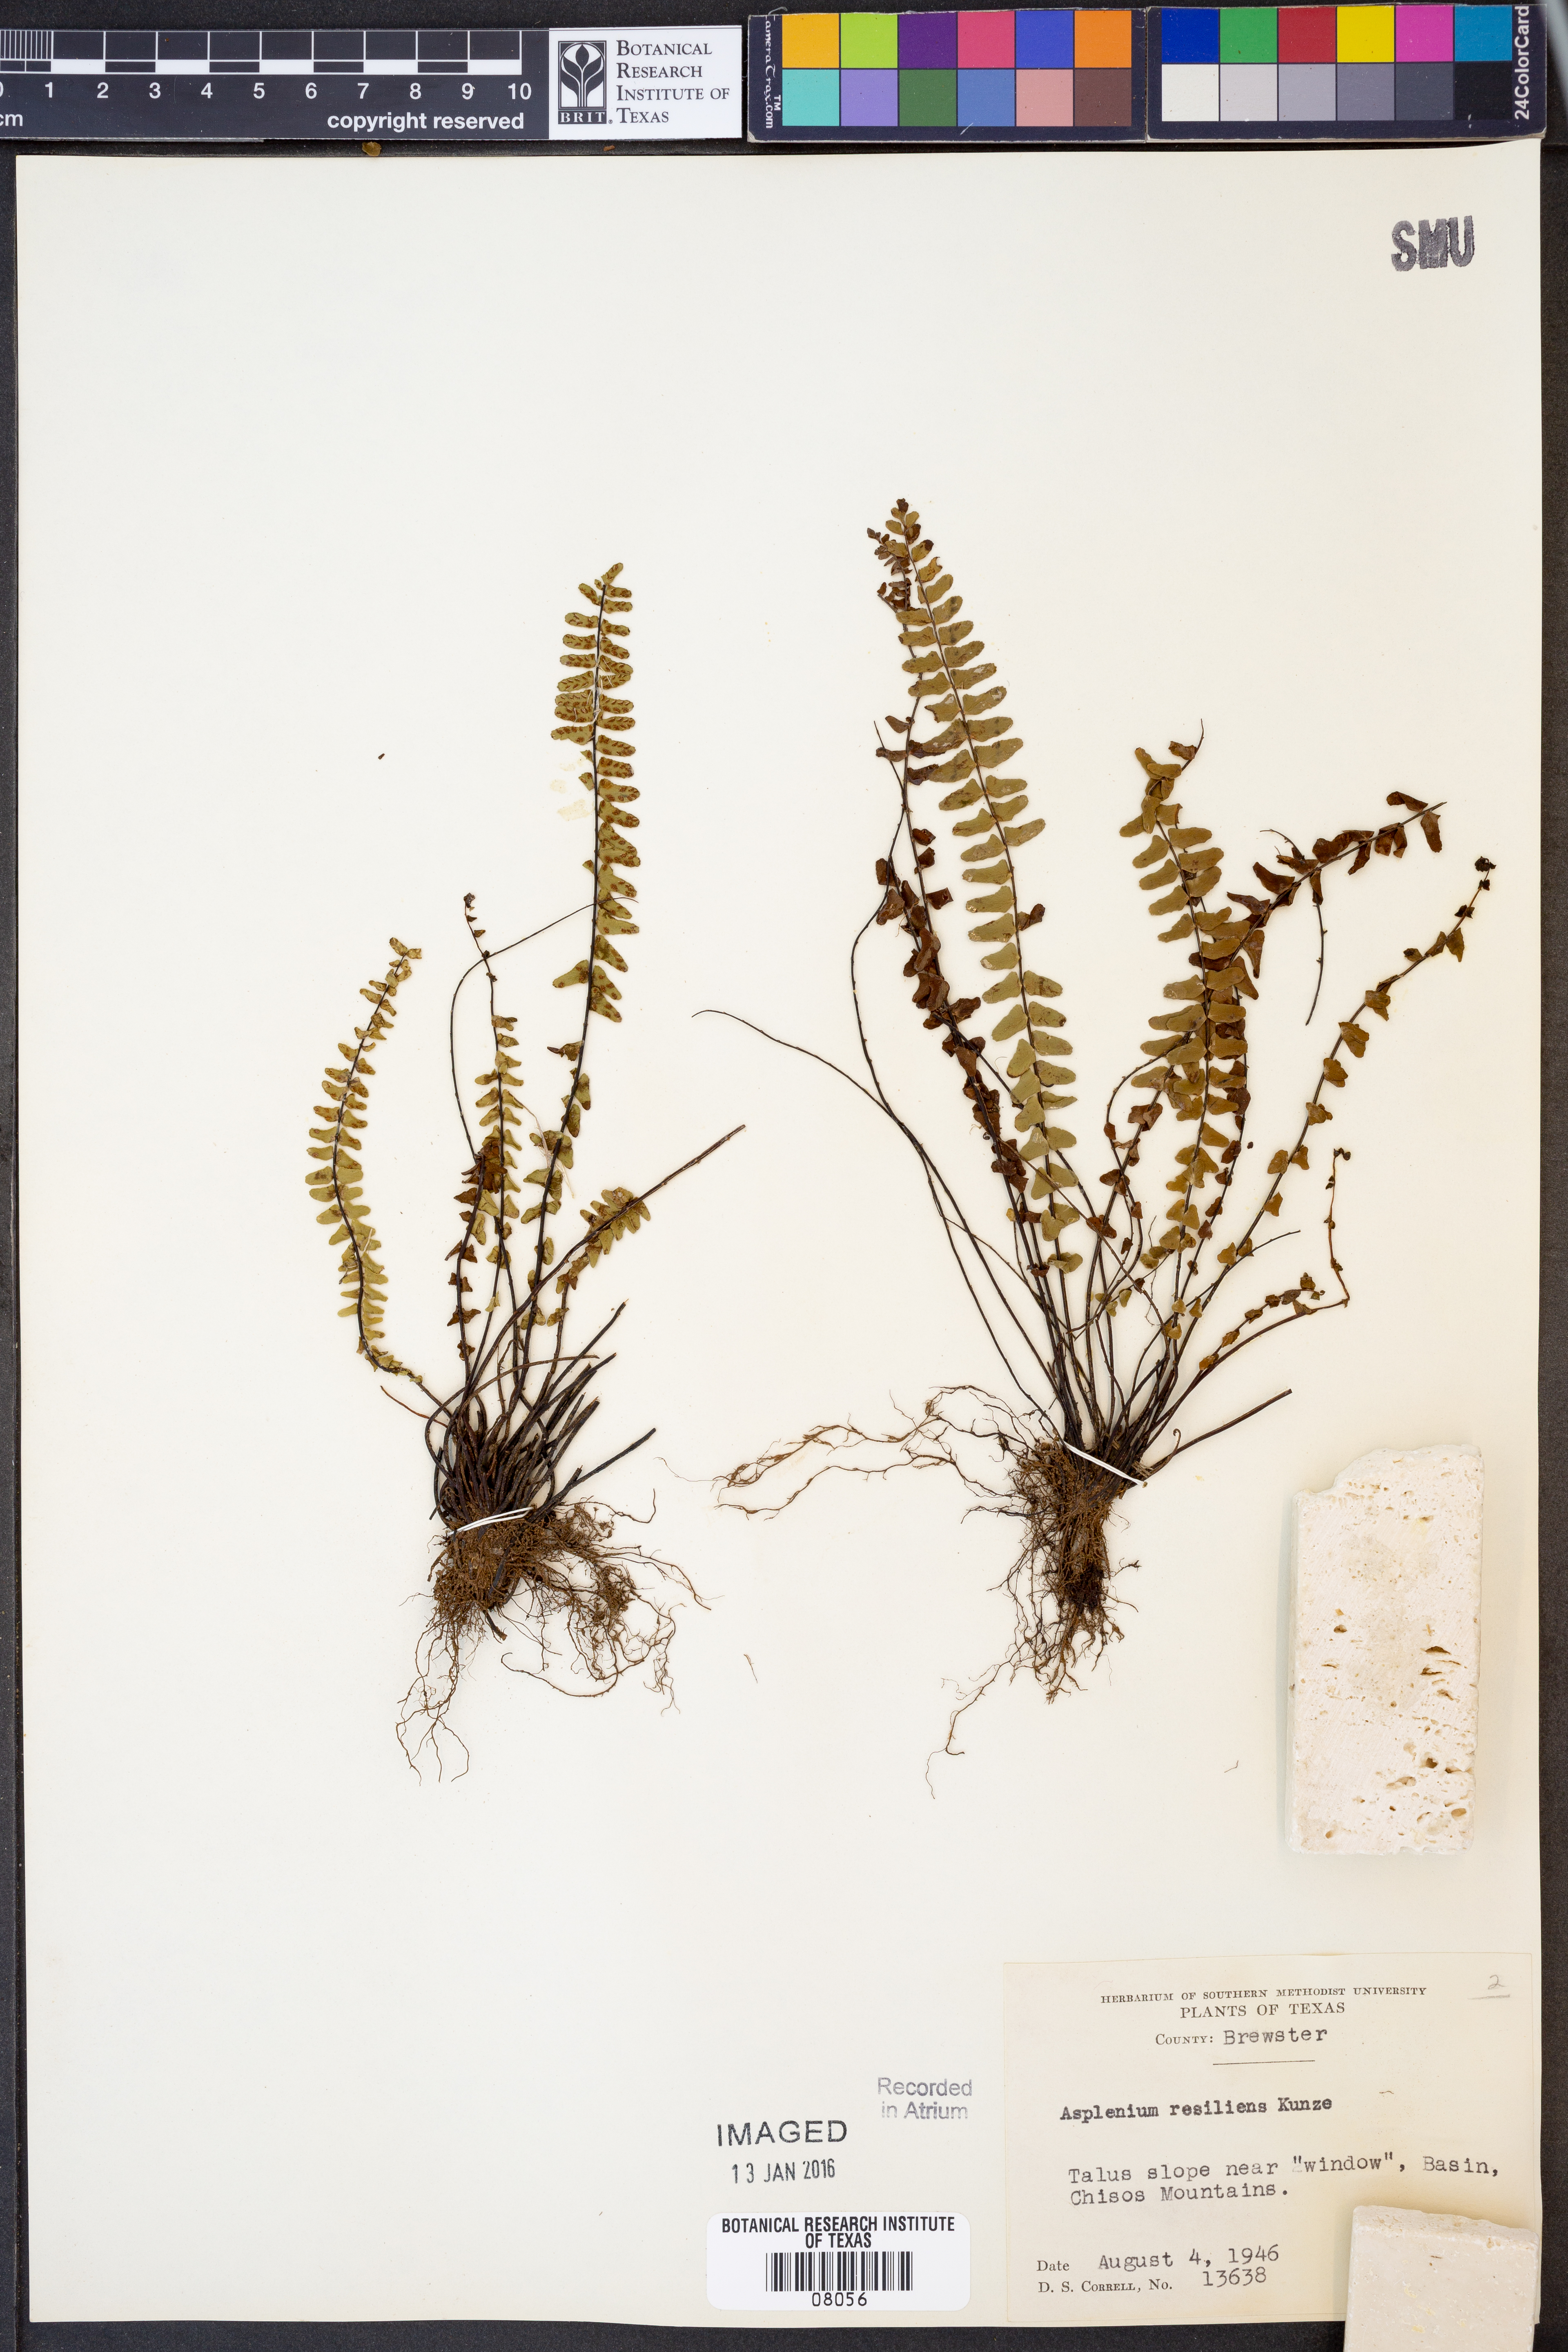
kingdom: Plantae
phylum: Tracheophyta
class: Polypodiopsida
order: Polypodiales
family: Aspleniaceae
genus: Asplenium
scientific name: Asplenium resiliens
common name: Blackstem spleenwort
